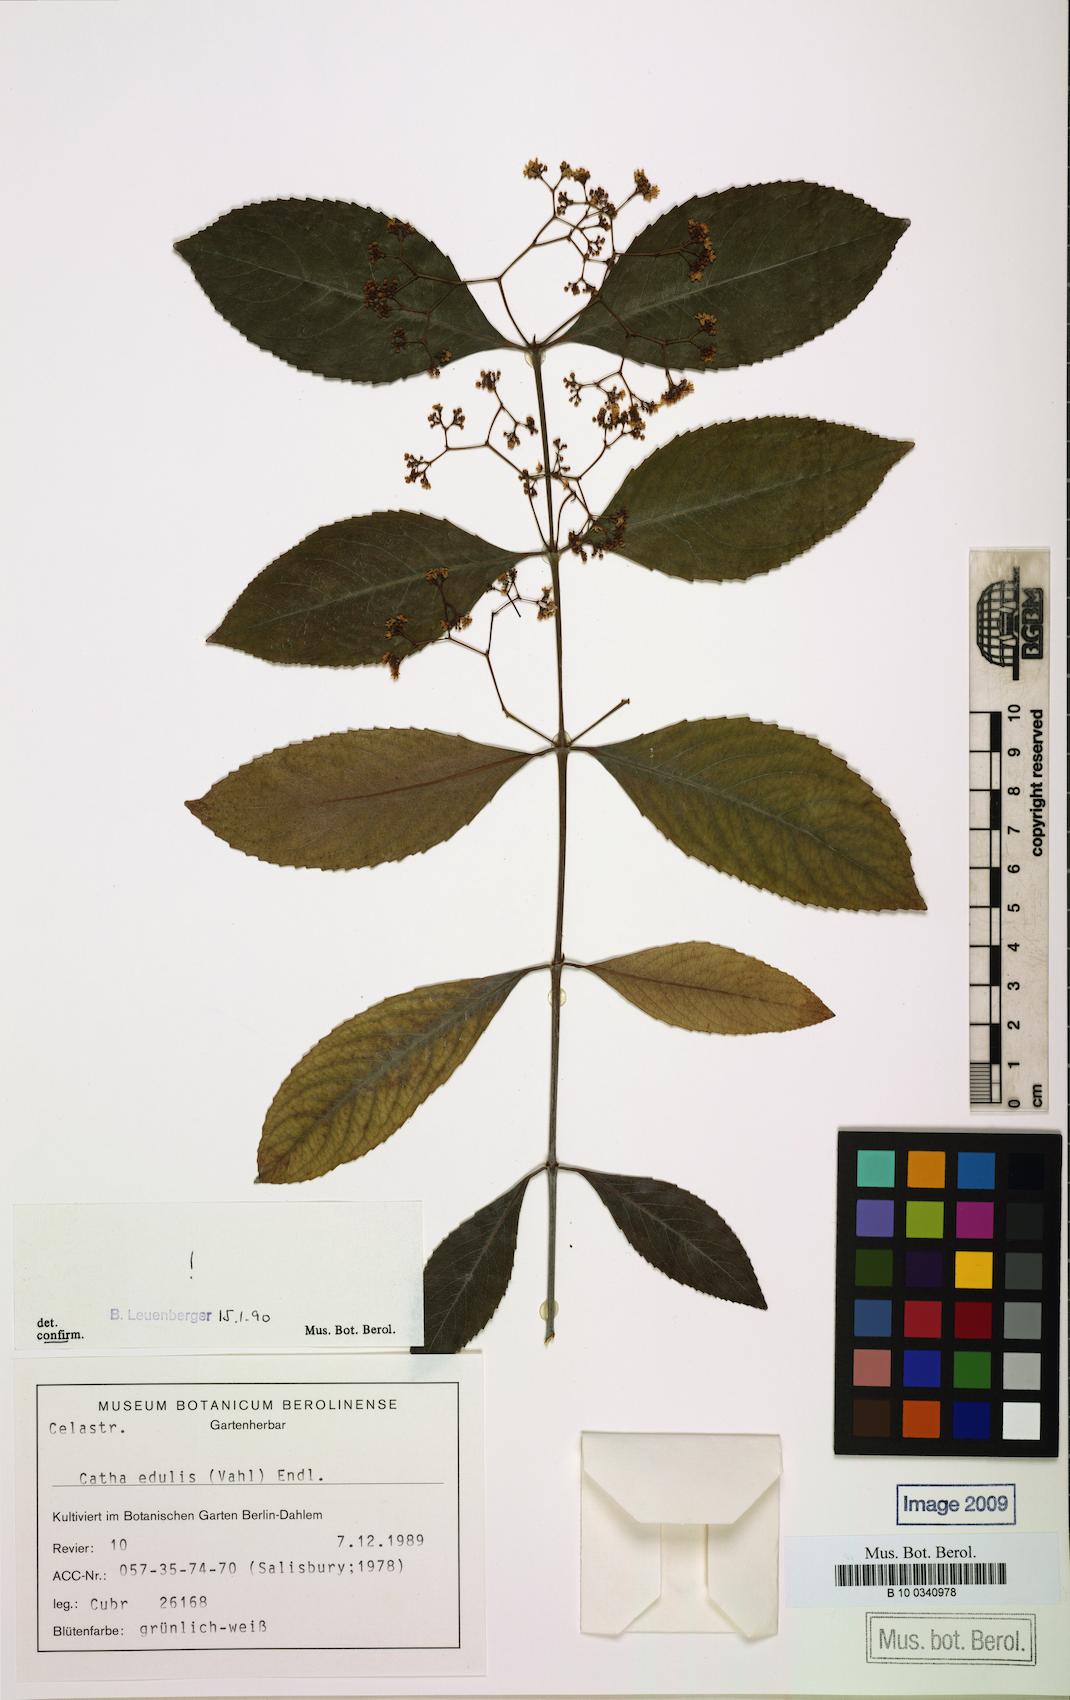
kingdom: Plantae
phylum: Tracheophyta
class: Magnoliopsida
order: Celastrales
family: Celastraceae
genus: Catha
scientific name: Catha edulis
